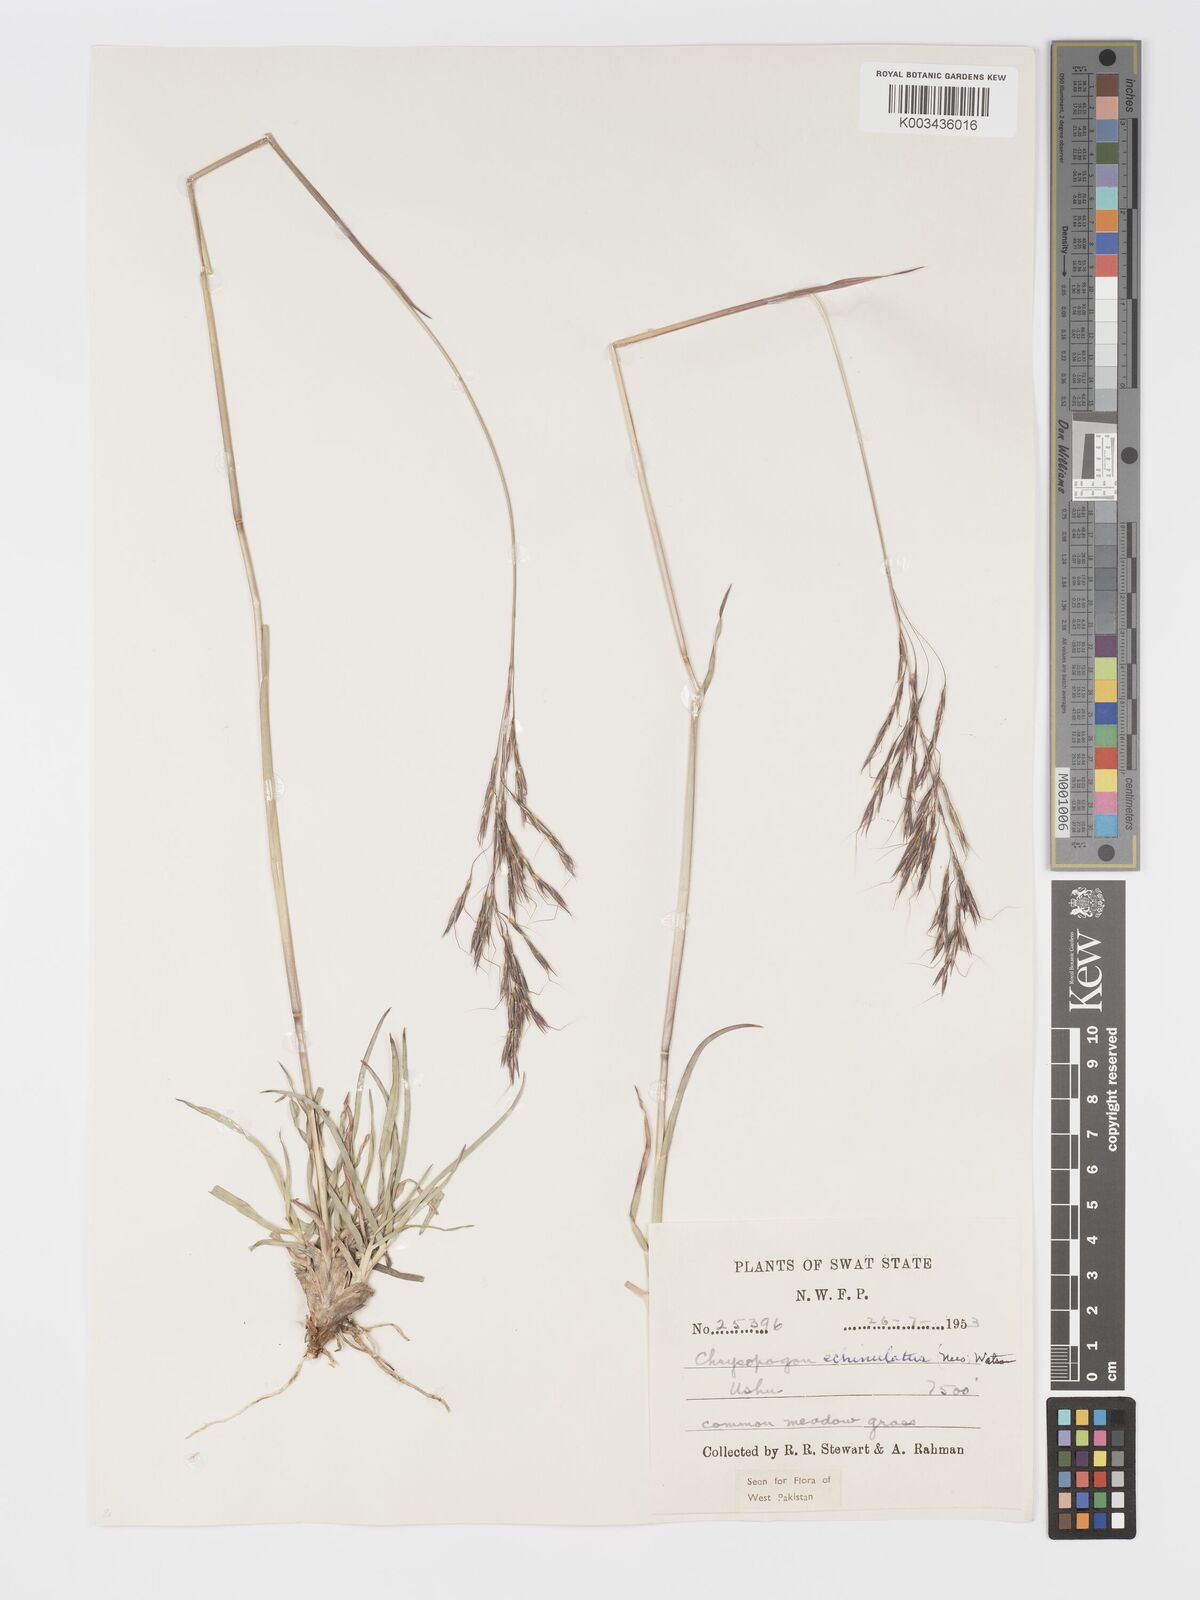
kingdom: Plantae
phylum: Tracheophyta
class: Liliopsida
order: Poales
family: Poaceae
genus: Chrysopogon
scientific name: Chrysopogon gryllus
